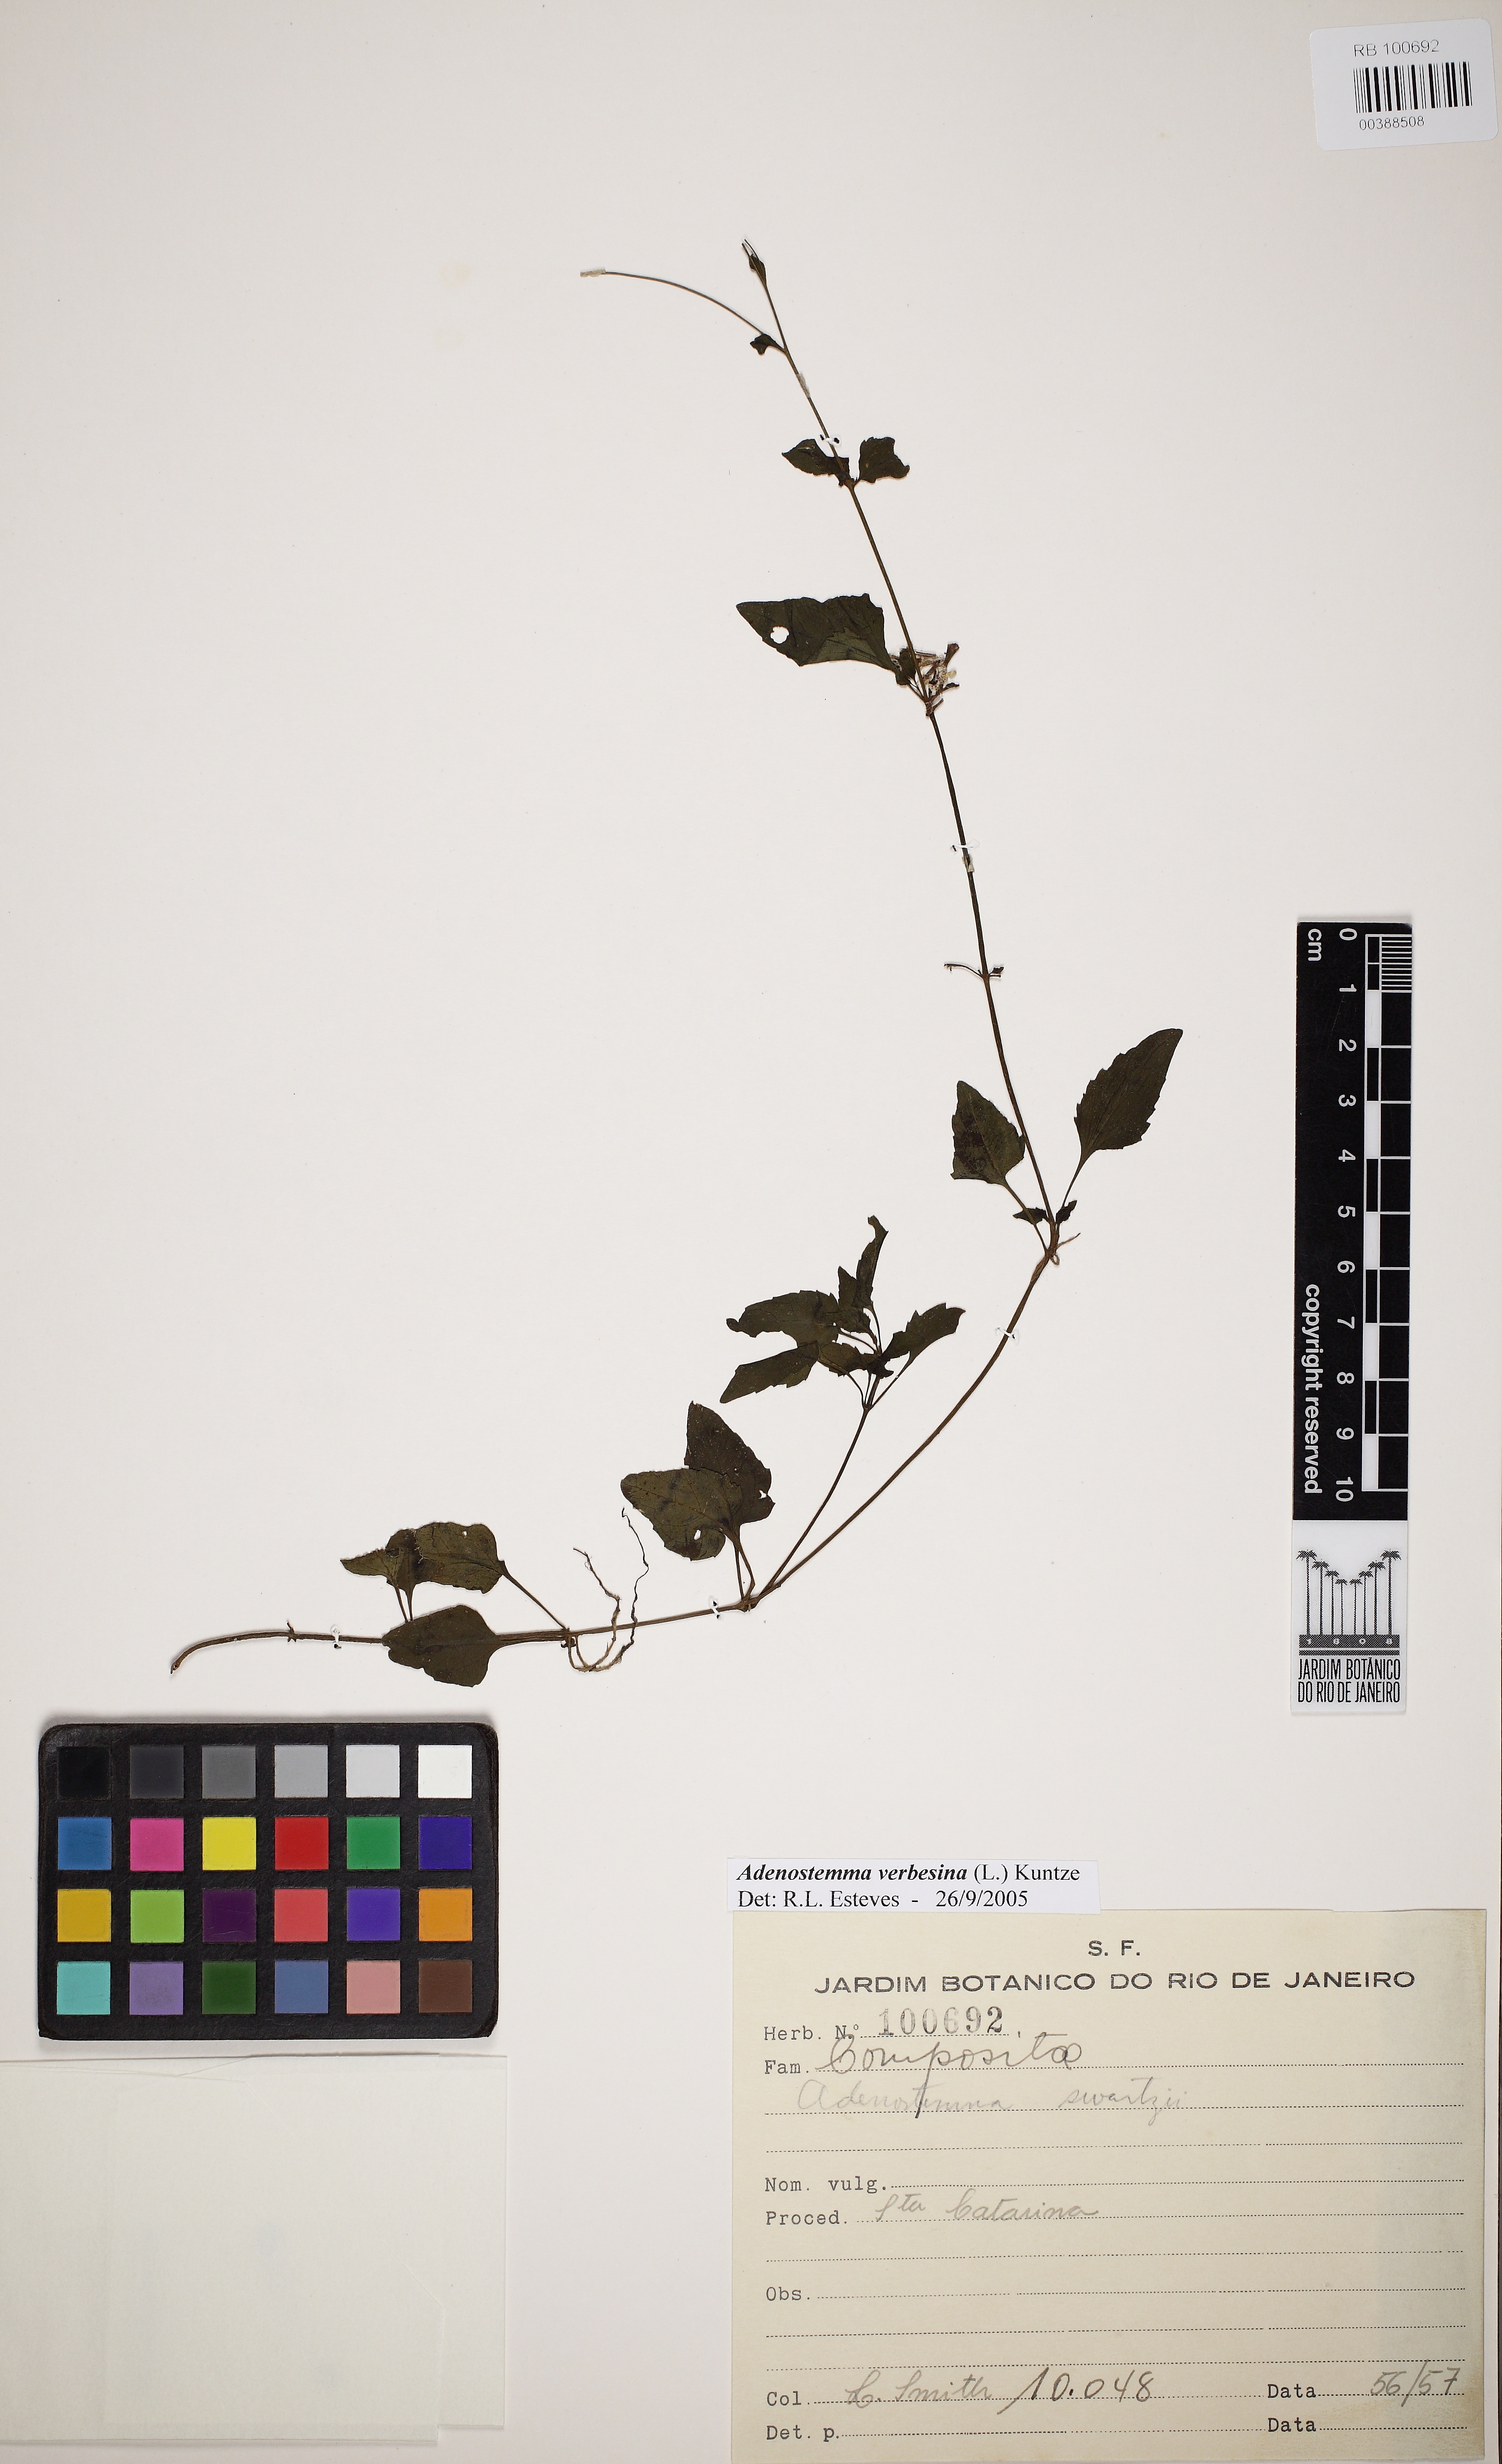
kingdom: Plantae
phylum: Tracheophyta
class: Magnoliopsida
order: Asterales
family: Asteraceae
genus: Adenostemma
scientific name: Adenostemma verbesina
